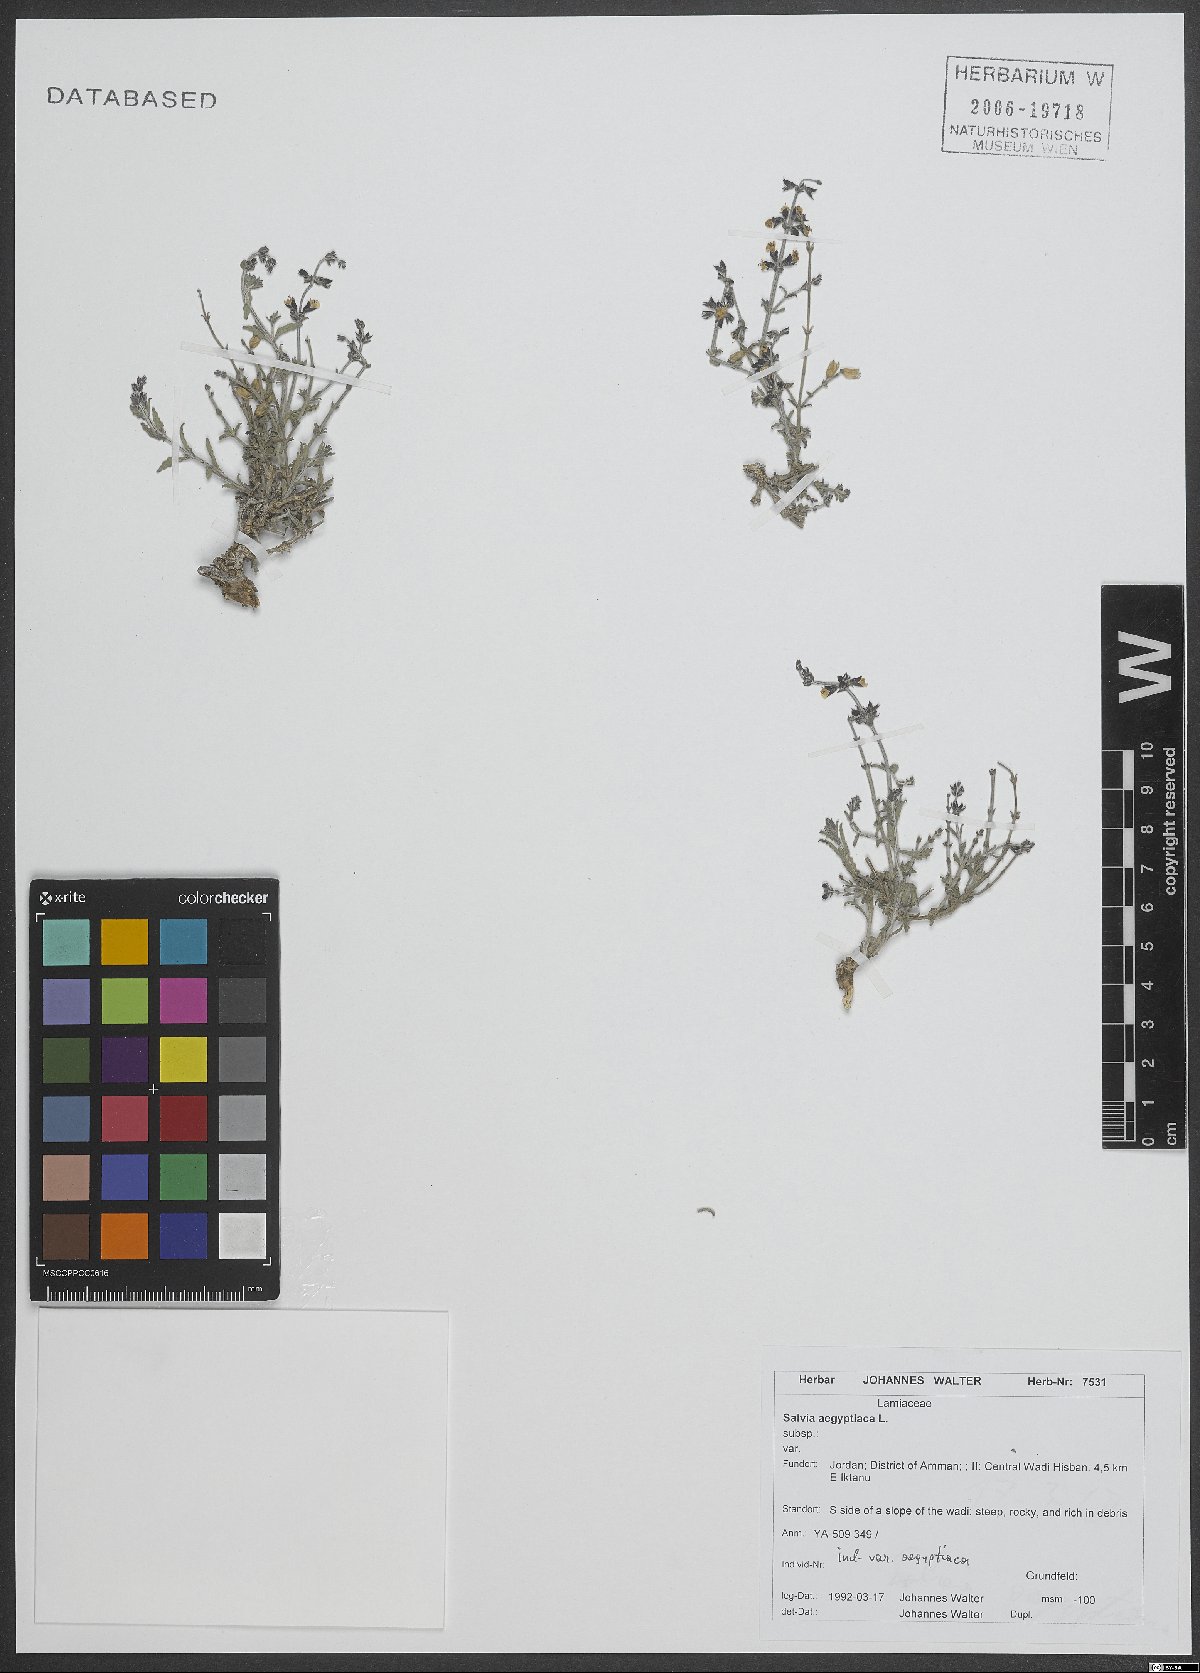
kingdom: Plantae
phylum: Tracheophyta
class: Magnoliopsida
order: Lamiales
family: Lamiaceae
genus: Salvia
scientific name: Salvia aegyptiaca
